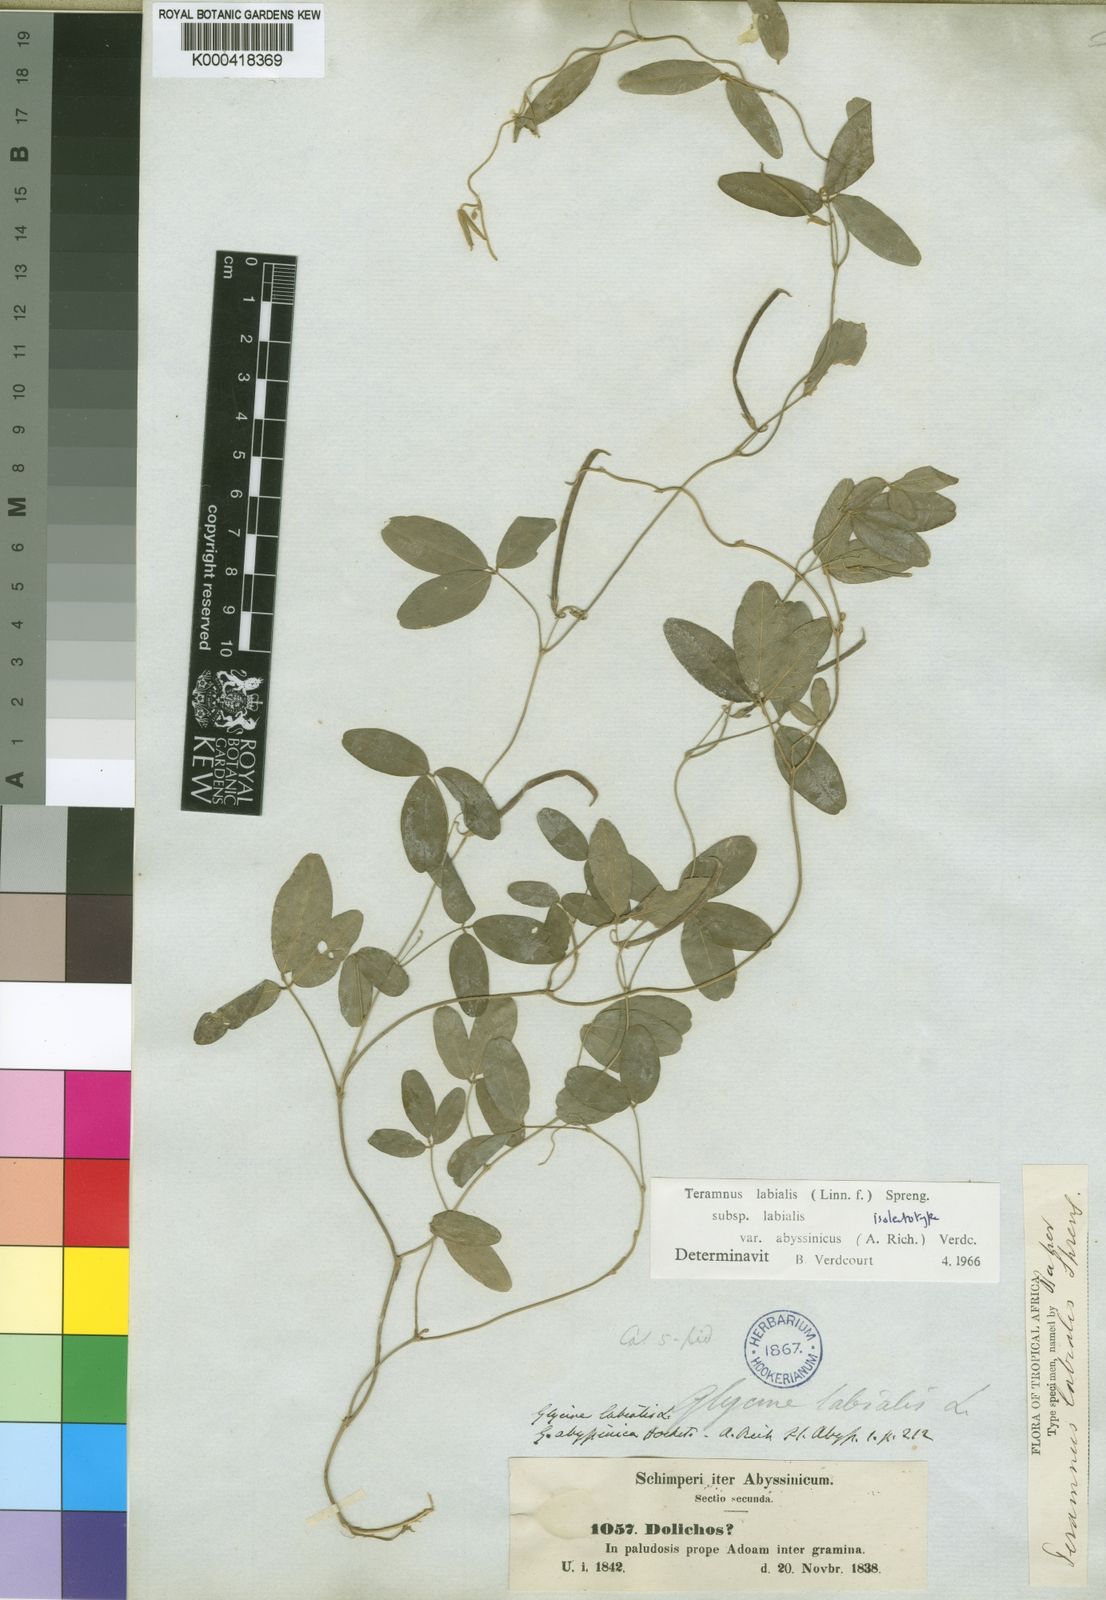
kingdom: Plantae
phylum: Tracheophyta
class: Magnoliopsida
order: Fabales
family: Fabaceae
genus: Teramnus
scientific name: Teramnus labialis
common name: Blue wiss
